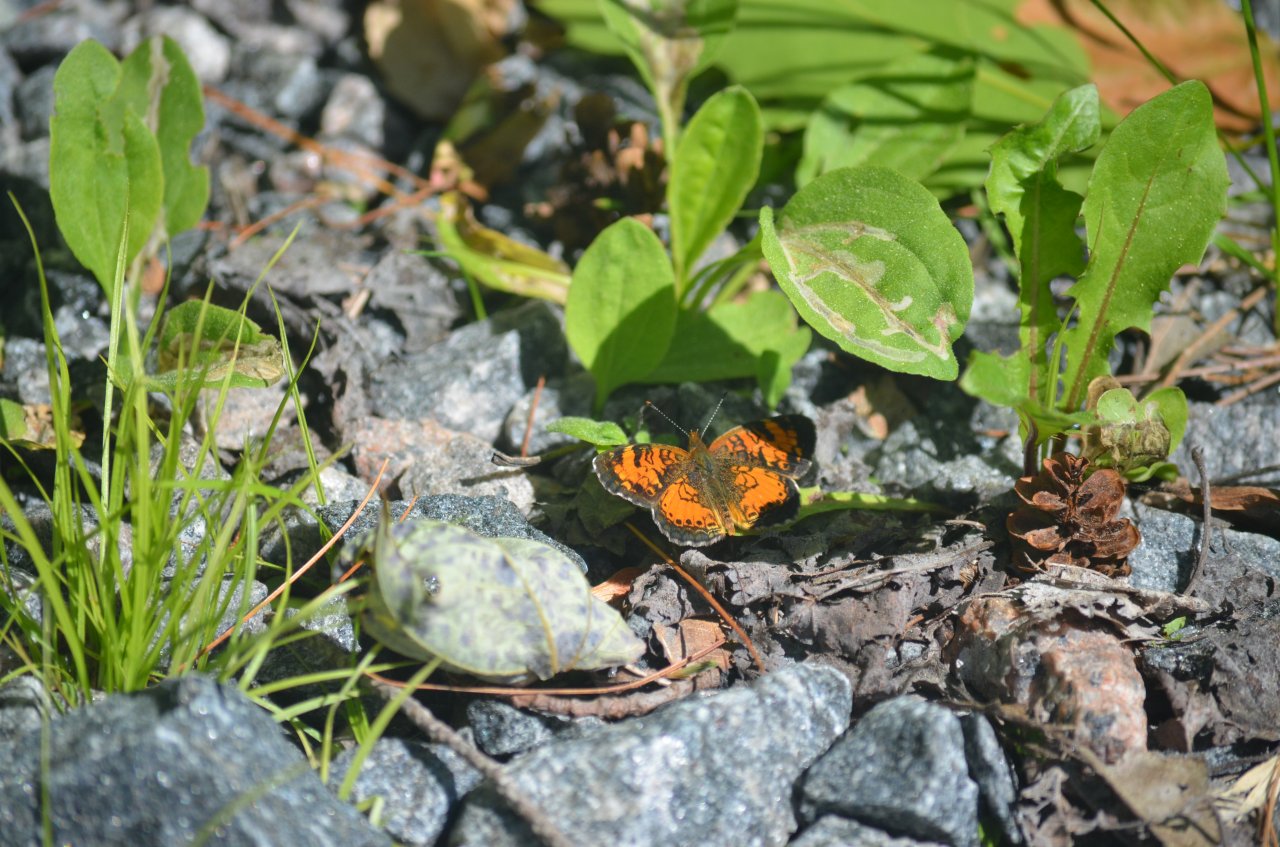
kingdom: Animalia
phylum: Arthropoda
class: Insecta
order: Lepidoptera
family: Nymphalidae
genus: Phyciodes
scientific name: Phyciodes tharos
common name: Northern Crescent
